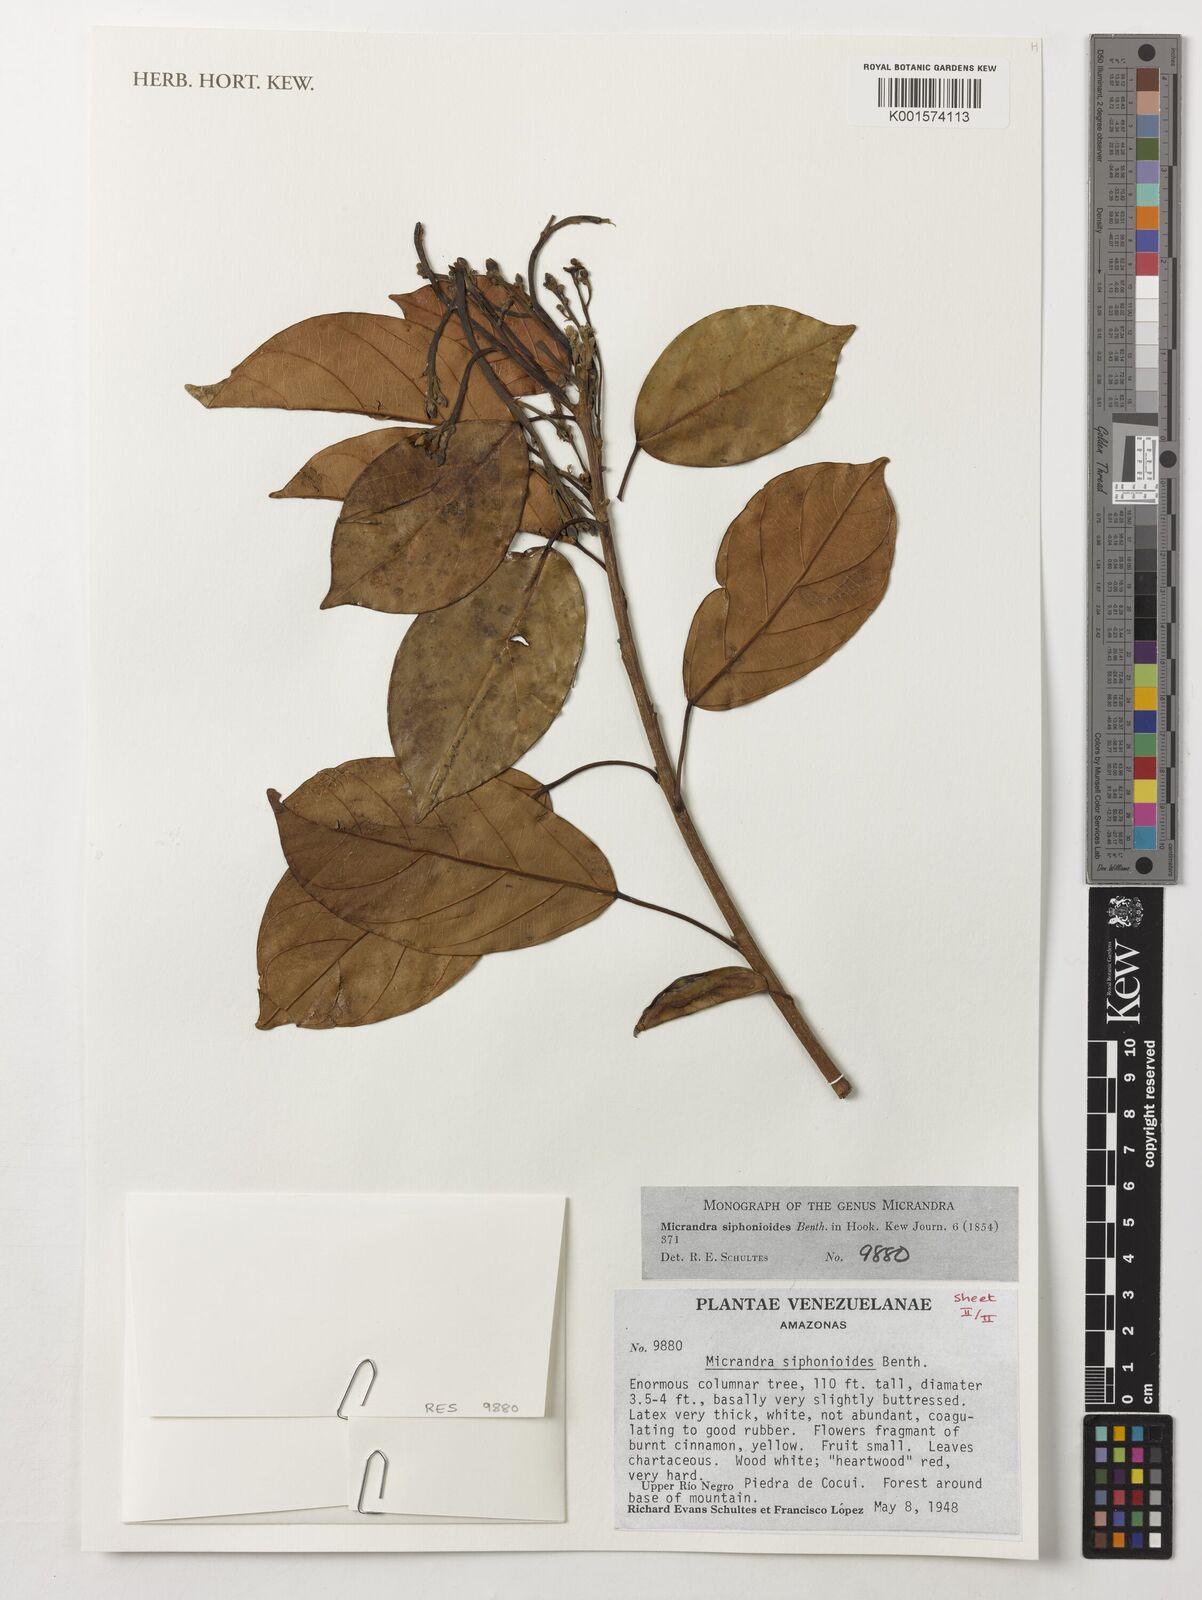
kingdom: Plantae
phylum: Tracheophyta
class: Magnoliopsida
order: Malpighiales
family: Euphorbiaceae
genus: Micrandra
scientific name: Micrandra siphonioides
